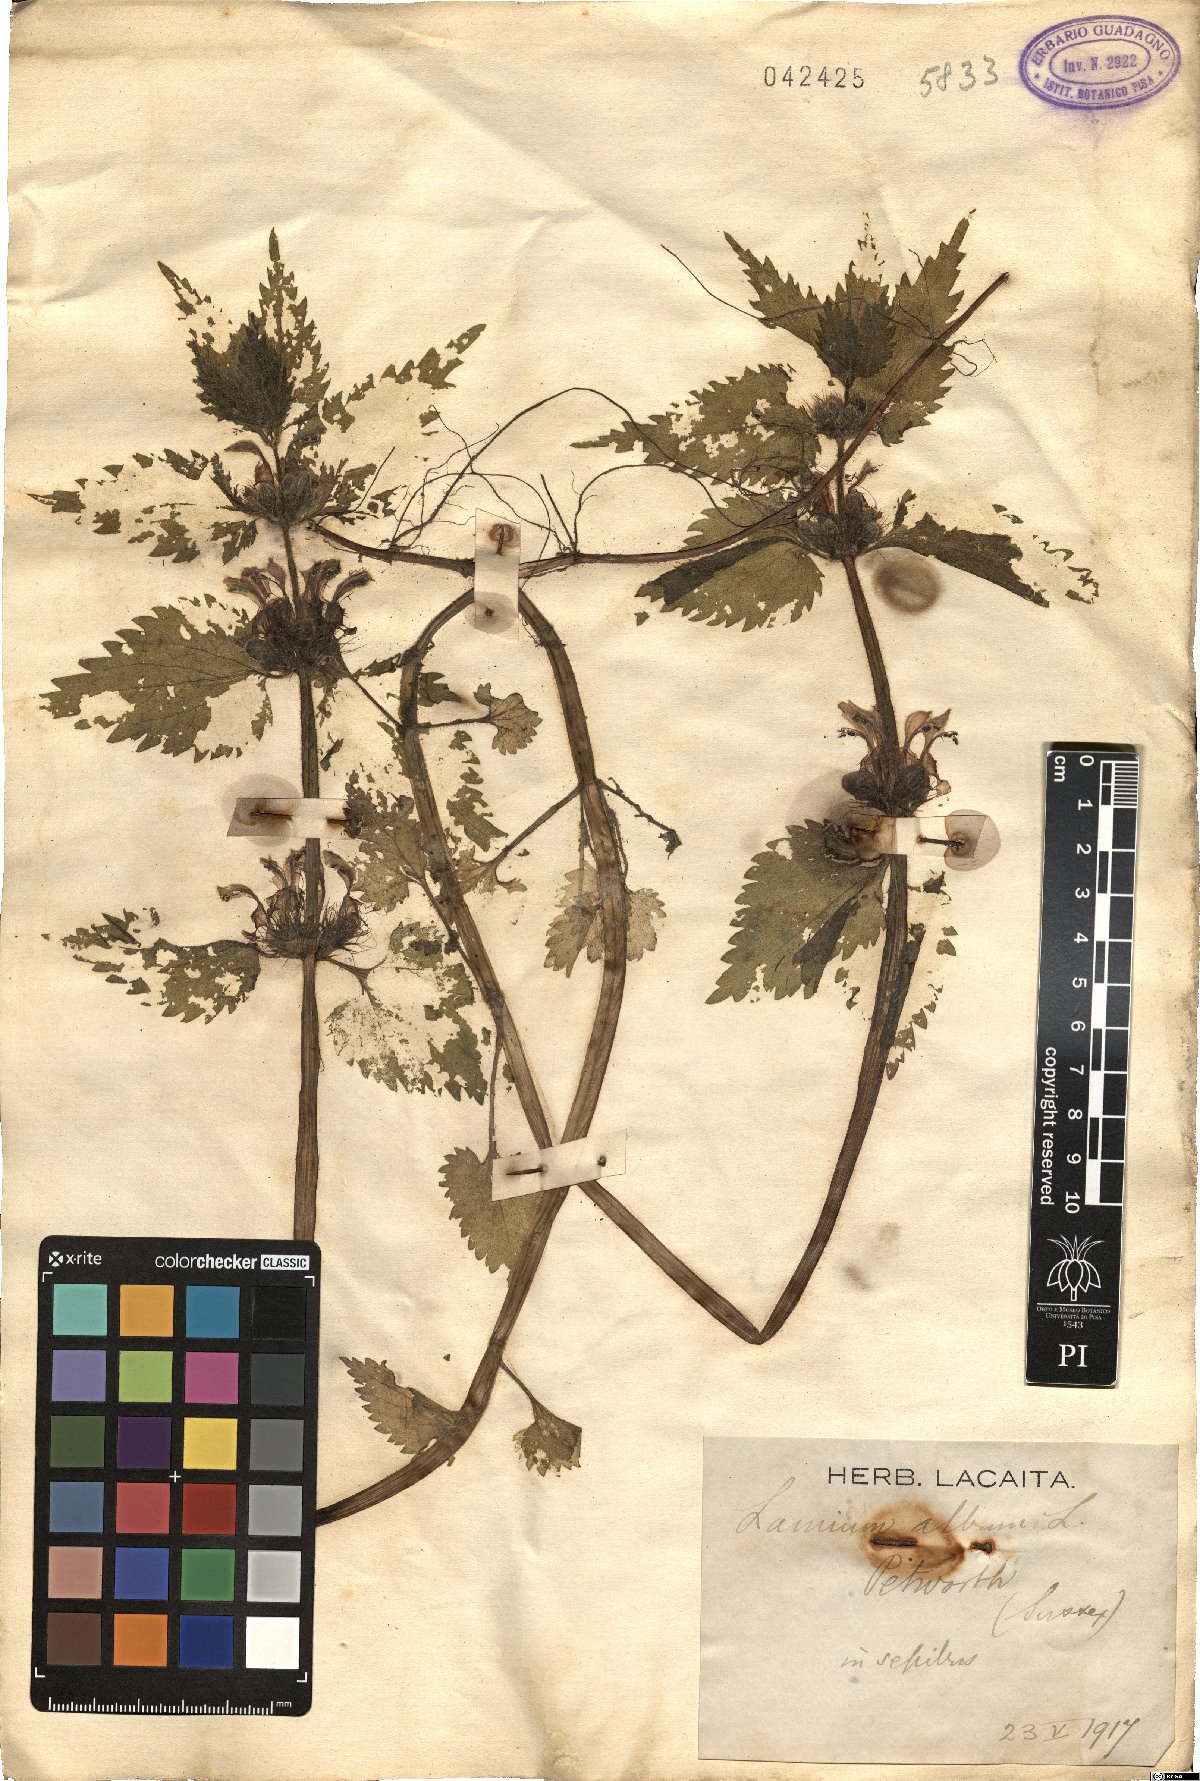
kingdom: Plantae
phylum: Tracheophyta
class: Magnoliopsida
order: Lamiales
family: Lamiaceae
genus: Lamium
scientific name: Lamium album
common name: White dead-nettle
